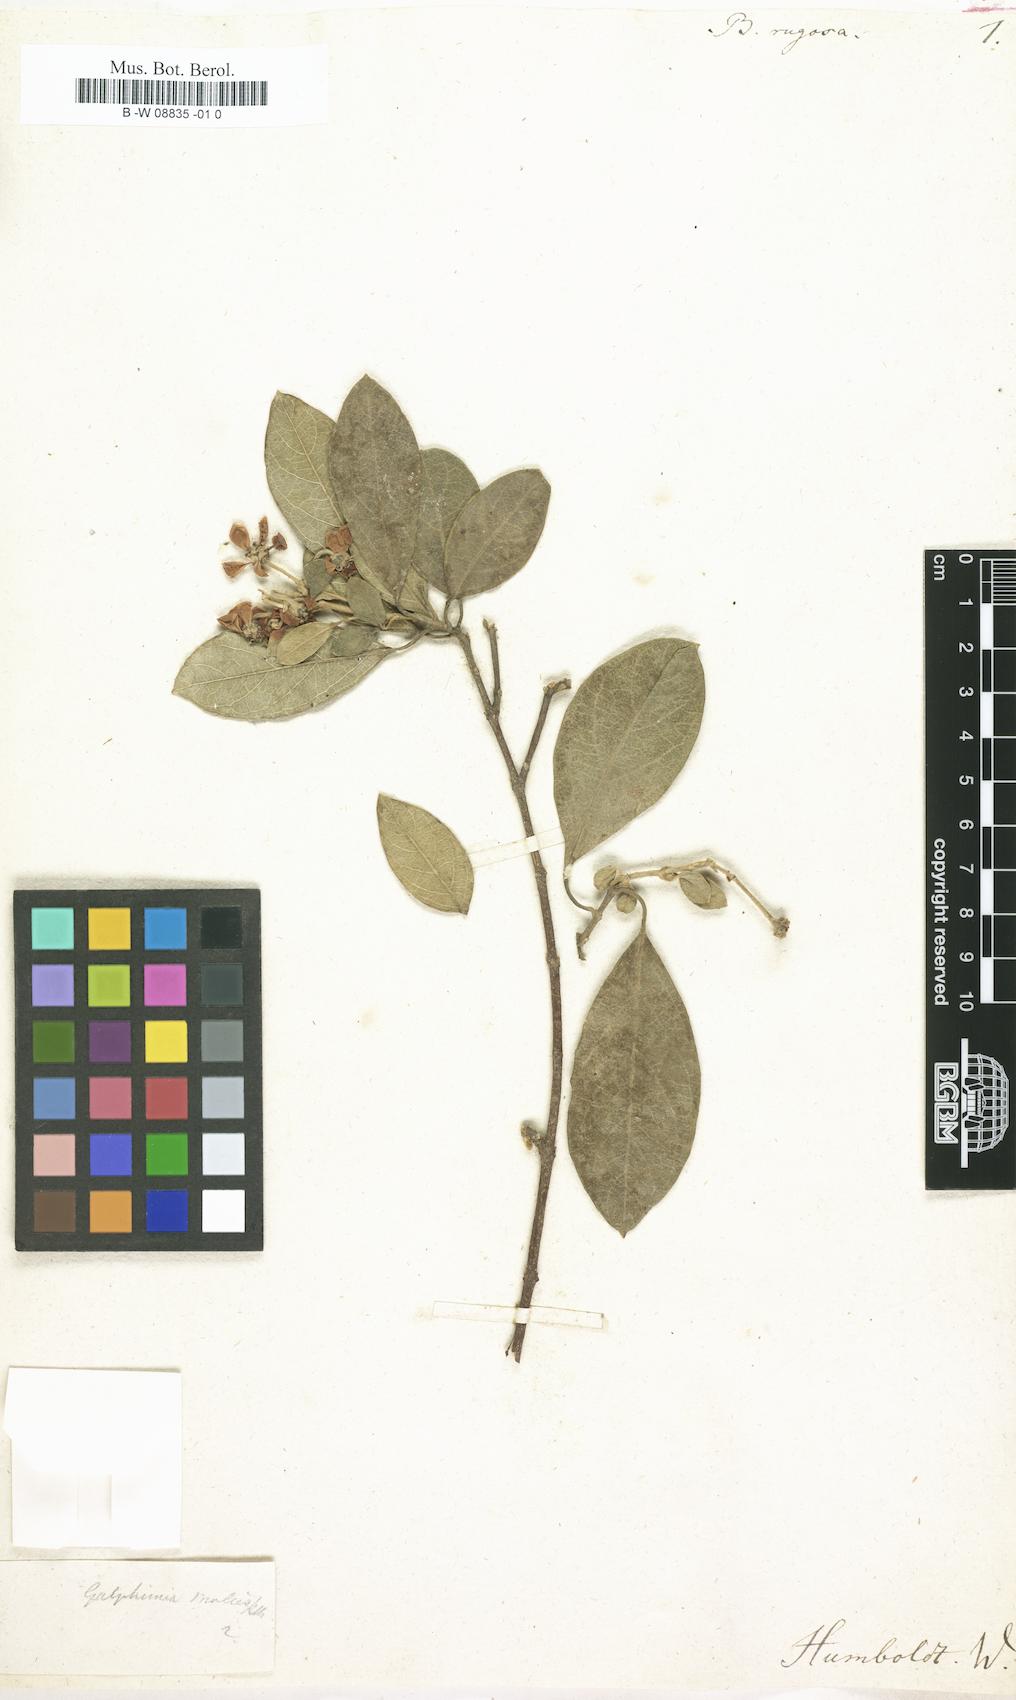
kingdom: Plantae
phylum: Tracheophyta
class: Magnoliopsida
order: Malpighiales
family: Malpighiaceae
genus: Heteropterys
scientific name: Heteropterys
